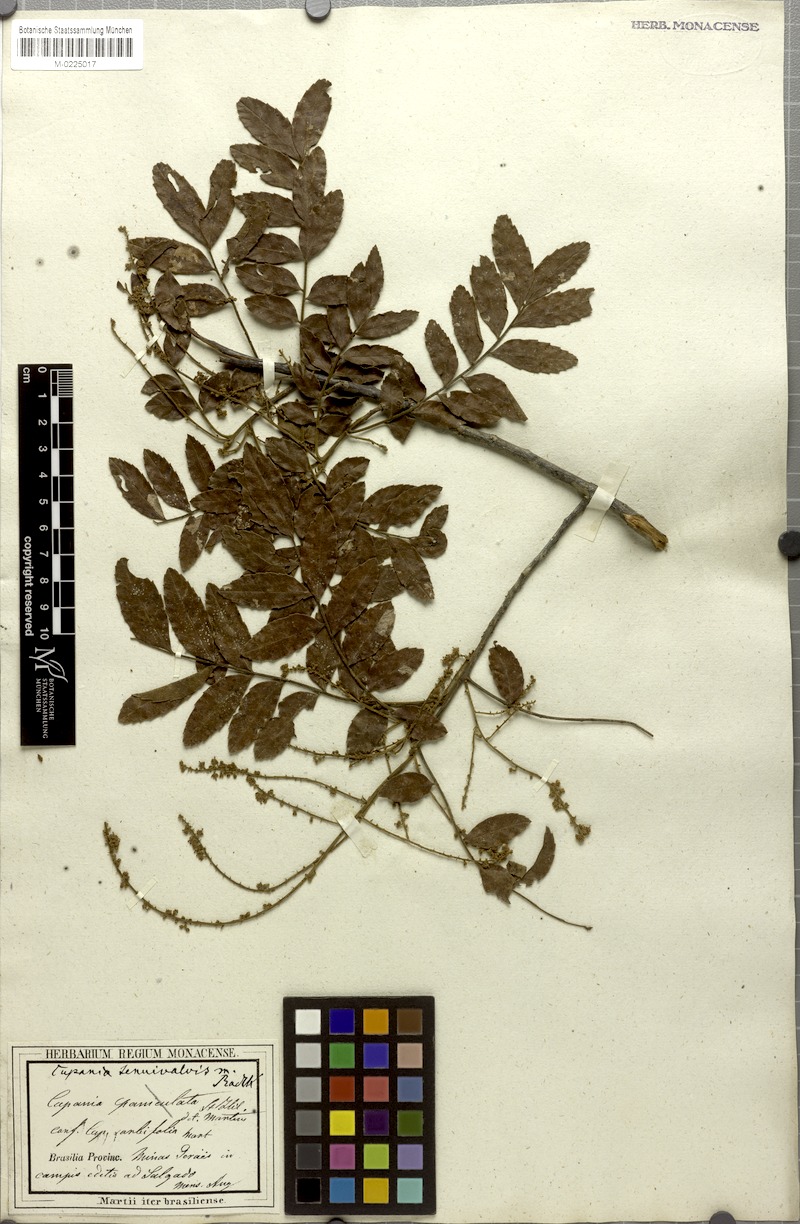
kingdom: Plantae
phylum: Tracheophyta
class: Magnoliopsida
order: Sapindales
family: Sapindaceae
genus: Cupania
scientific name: Cupania tenuivalvis
